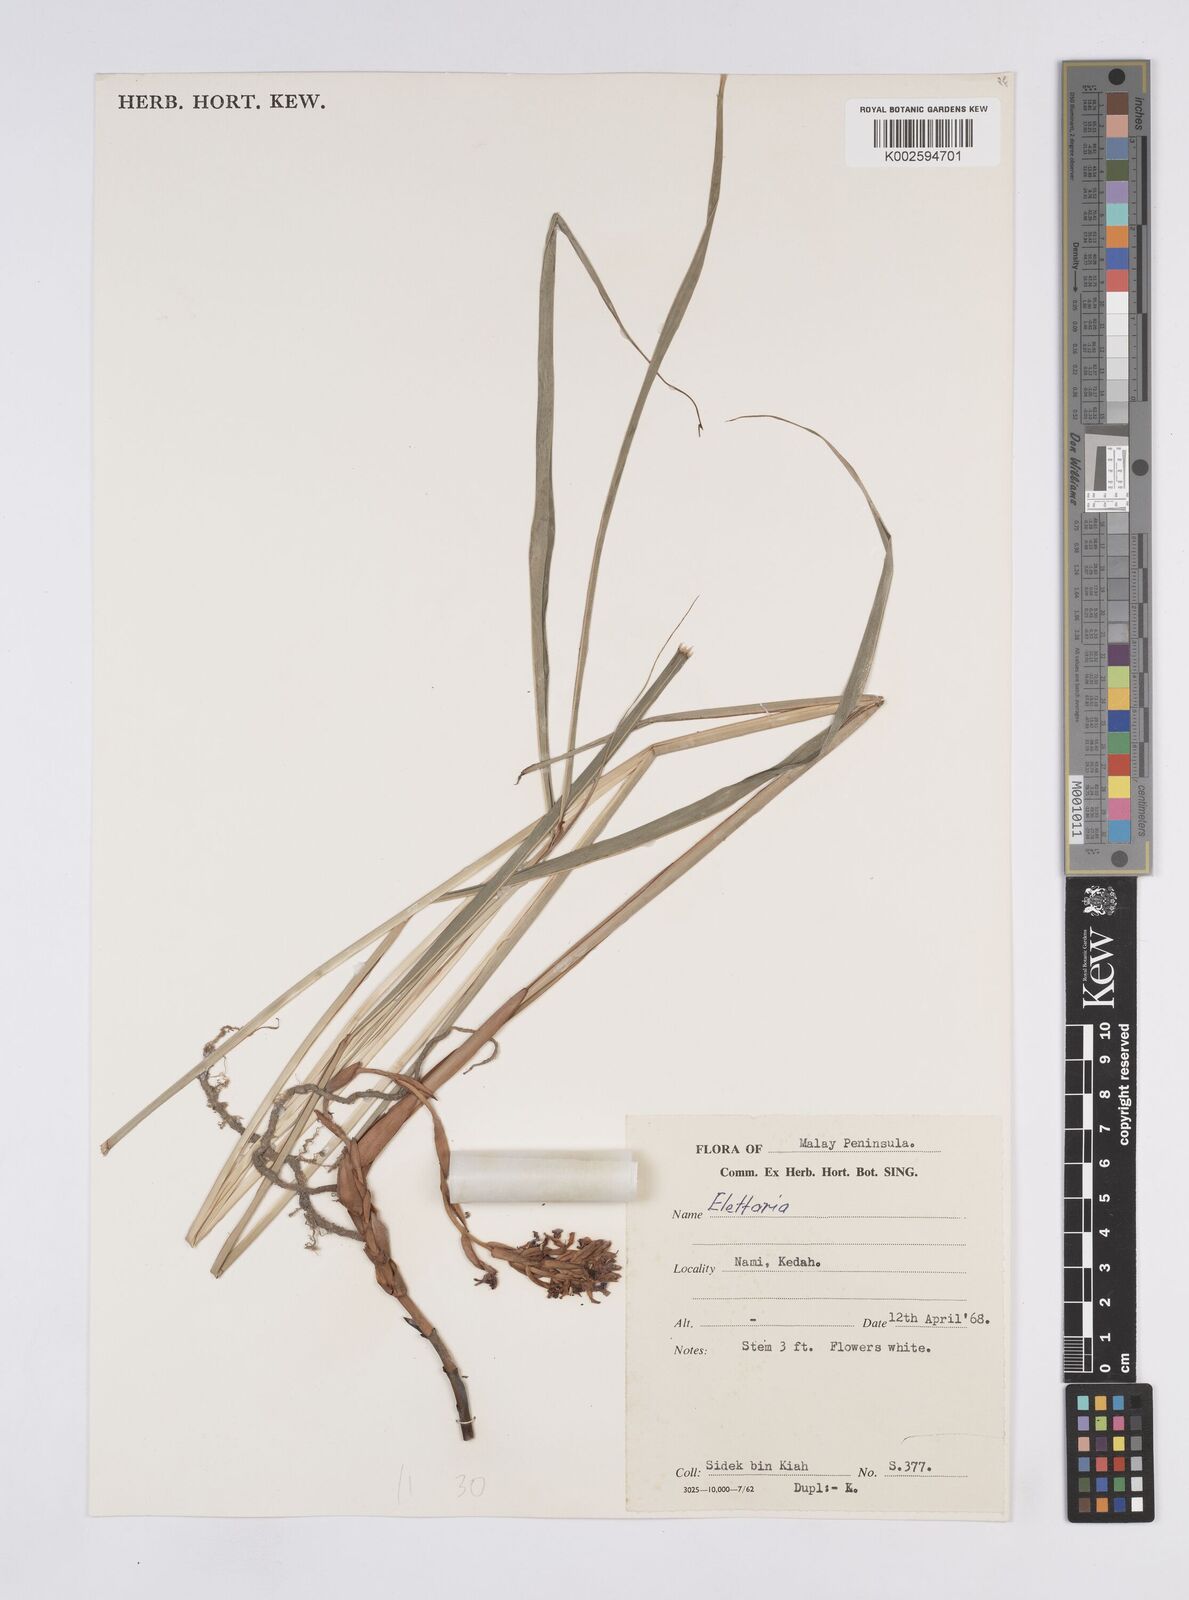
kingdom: Plantae
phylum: Tracheophyta
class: Liliopsida
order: Zingiberales
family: Zingiberaceae
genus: Elettaria
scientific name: Elettaria
